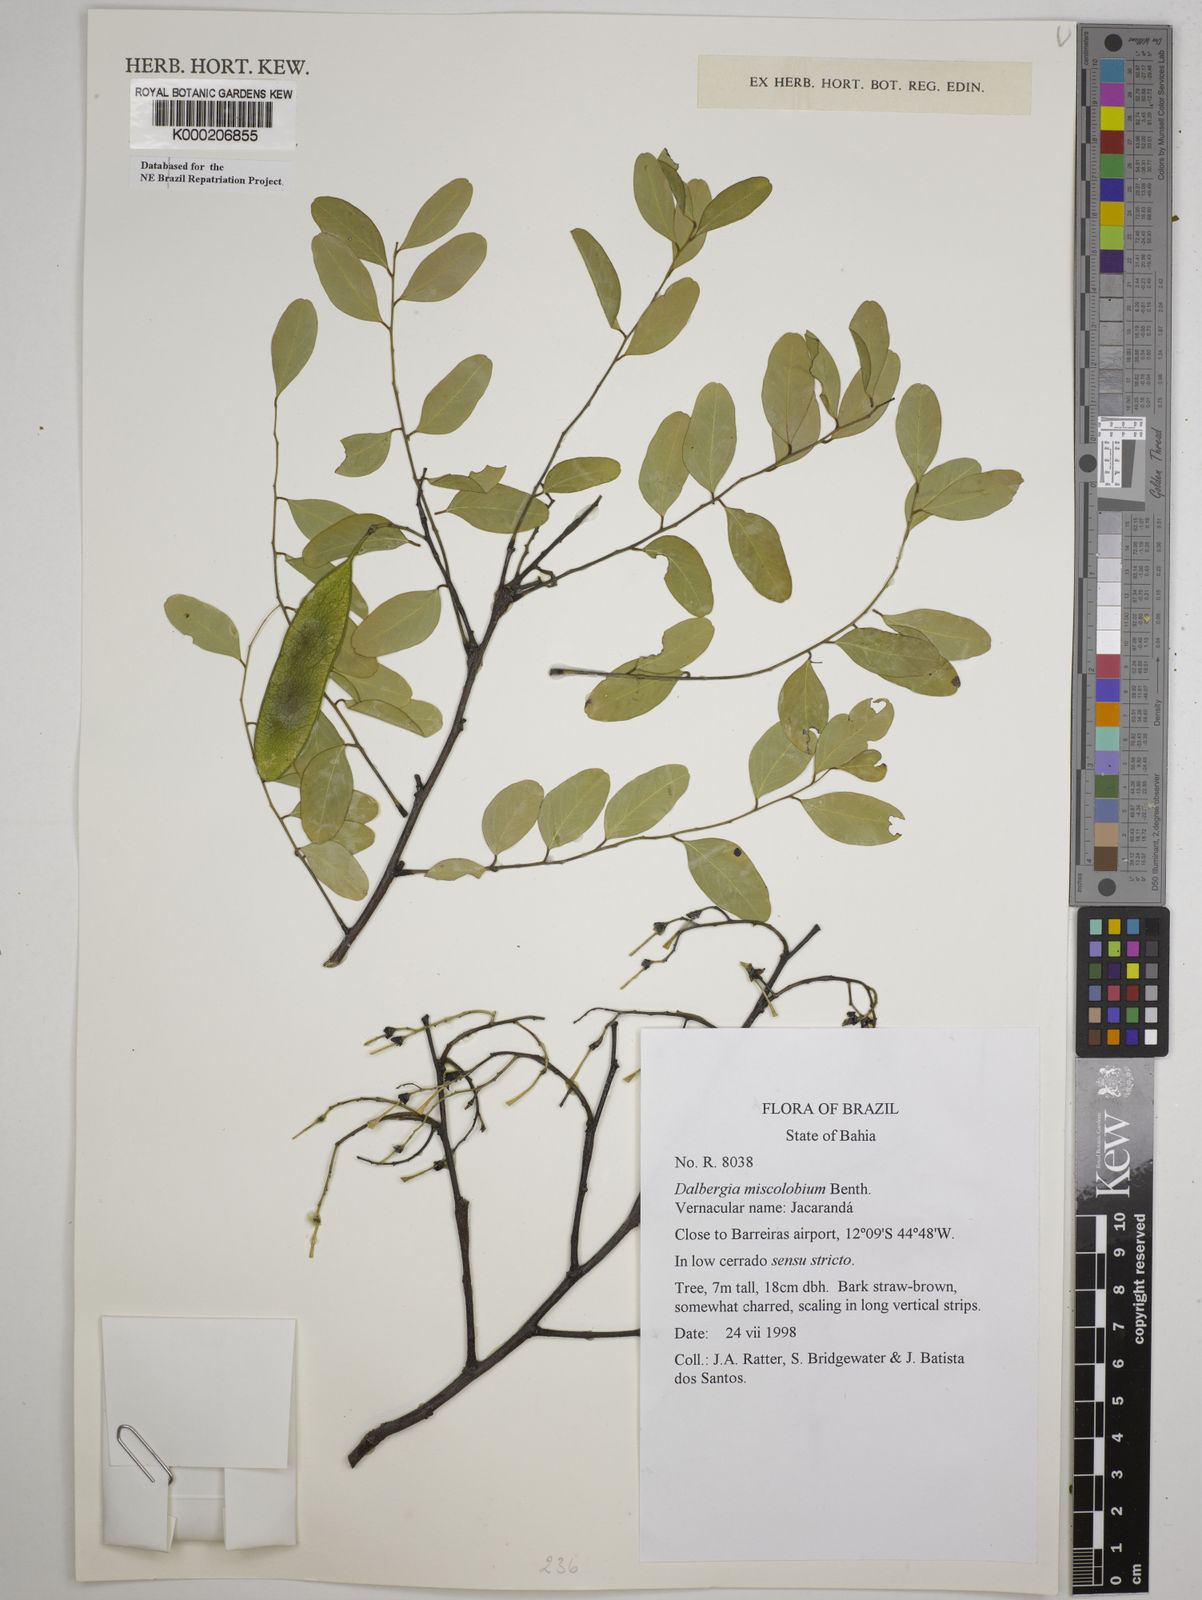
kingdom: Plantae
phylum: Tracheophyta
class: Magnoliopsida
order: Fabales
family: Fabaceae
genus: Dalbergia
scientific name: Dalbergia miscolobium
